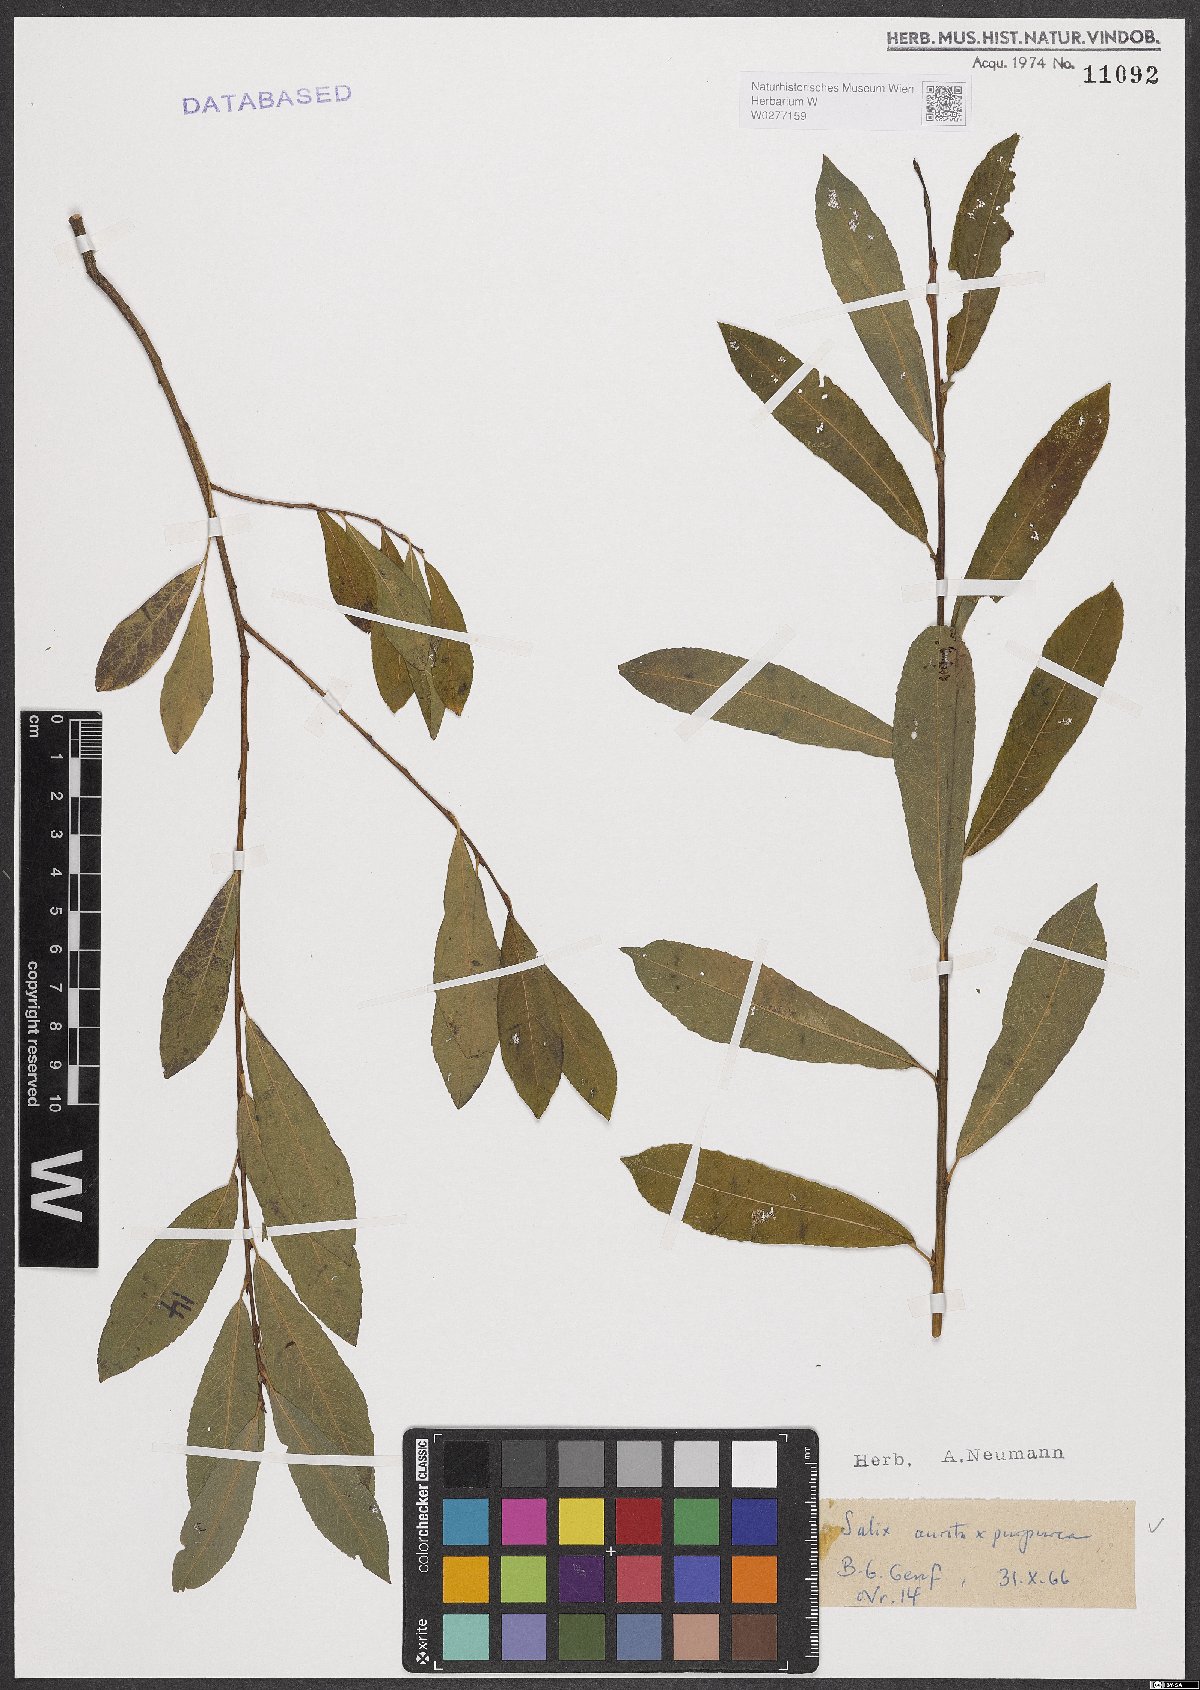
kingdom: Plantae
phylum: Tracheophyta
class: Magnoliopsida
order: Malpighiales
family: Salicaceae
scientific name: Salicaceae
